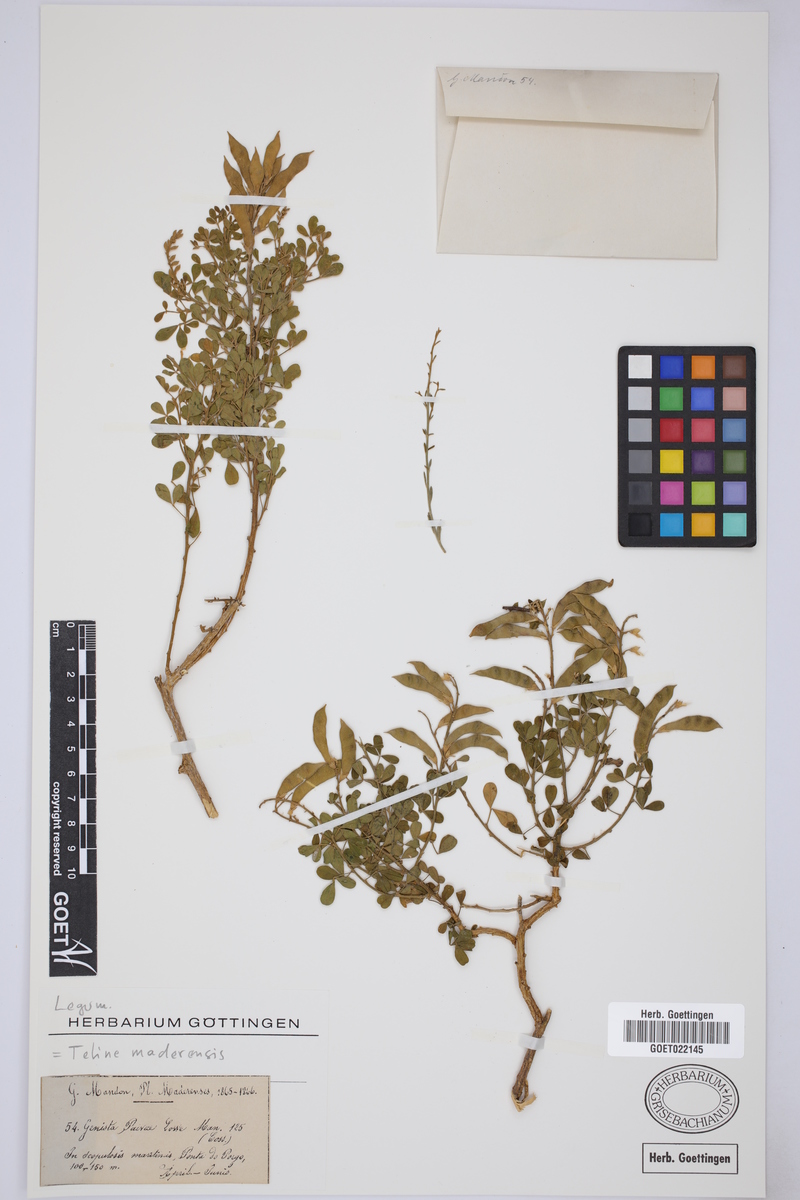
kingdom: Plantae
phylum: Tracheophyta
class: Magnoliopsida
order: Fabales
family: Fabaceae
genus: Genista
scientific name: Genista maderensis
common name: Madeira dyer's greenweed
